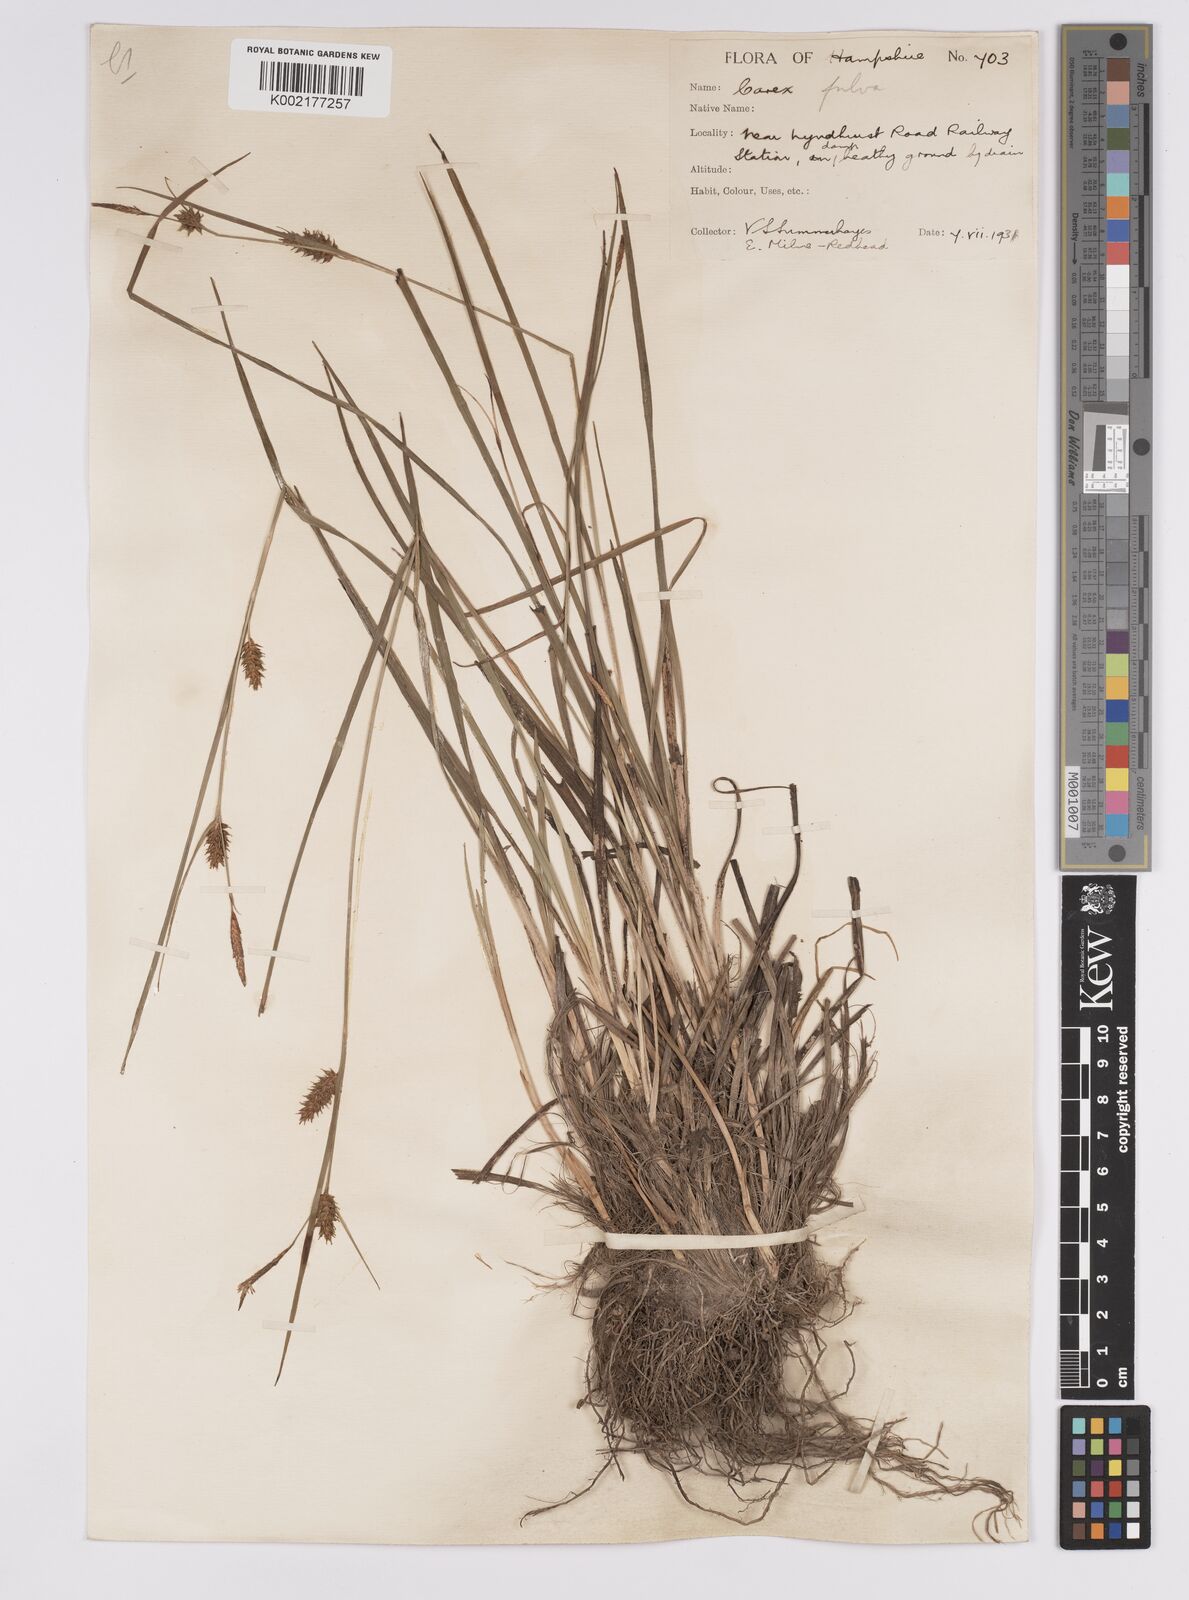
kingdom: Plantae
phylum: Tracheophyta
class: Liliopsida
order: Poales
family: Cyperaceae
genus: Carex
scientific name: Carex hostiana
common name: Tawny sedge
